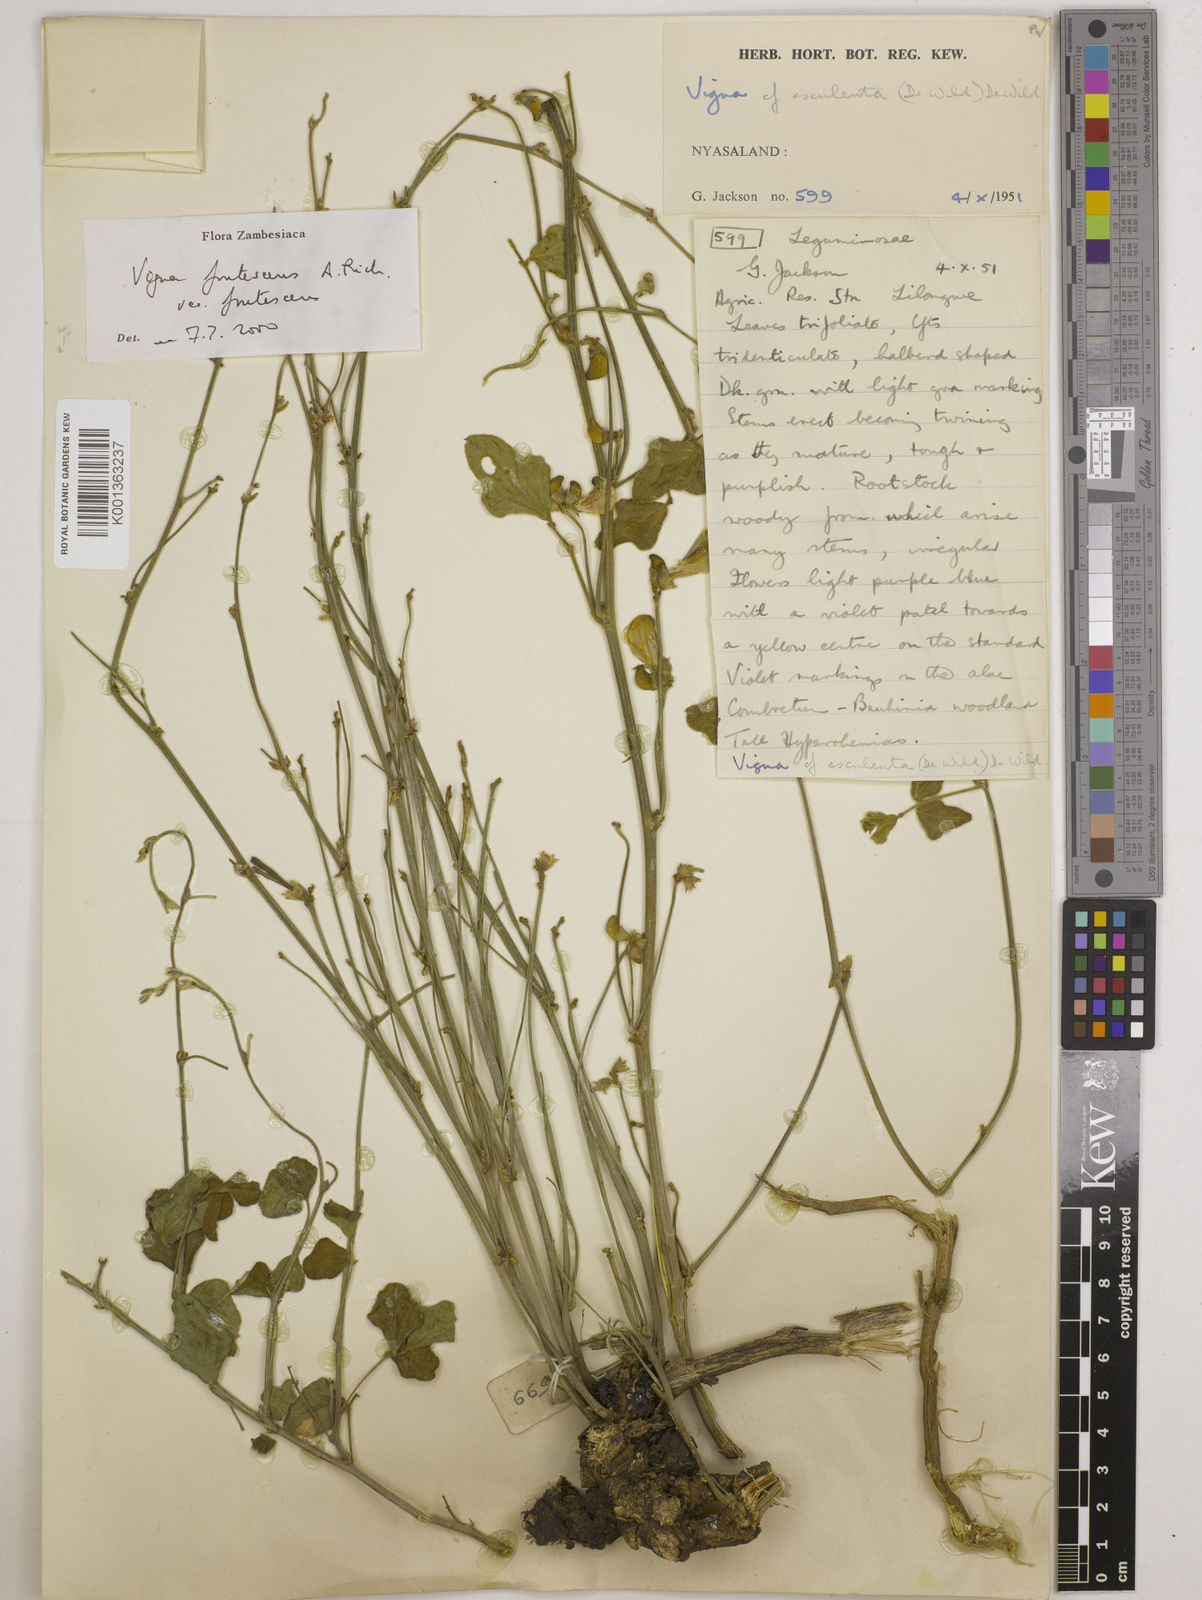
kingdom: Plantae
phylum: Tracheophyta
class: Magnoliopsida
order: Fabales
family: Fabaceae
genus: Vigna
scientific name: Vigna
